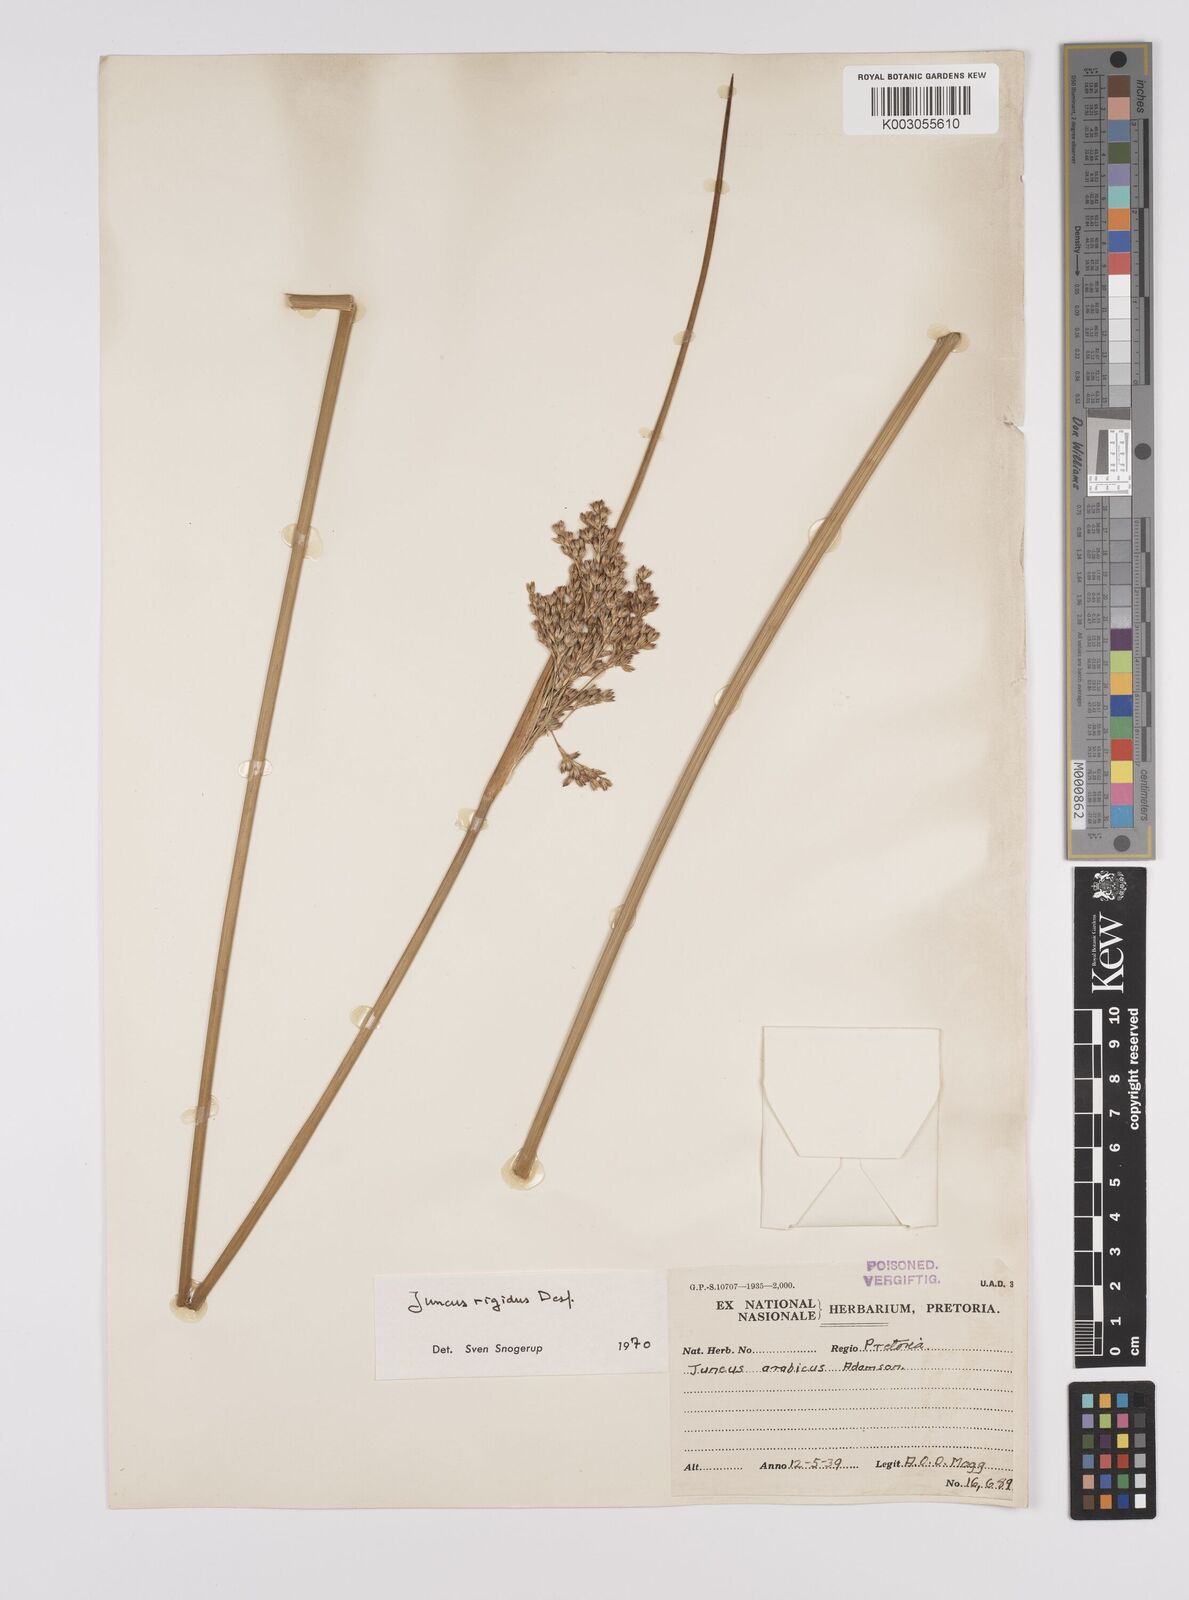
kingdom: Plantae
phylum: Tracheophyta
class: Liliopsida
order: Poales
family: Juncaceae
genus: Juncus
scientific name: Juncus rigidus
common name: Hard sea rush
